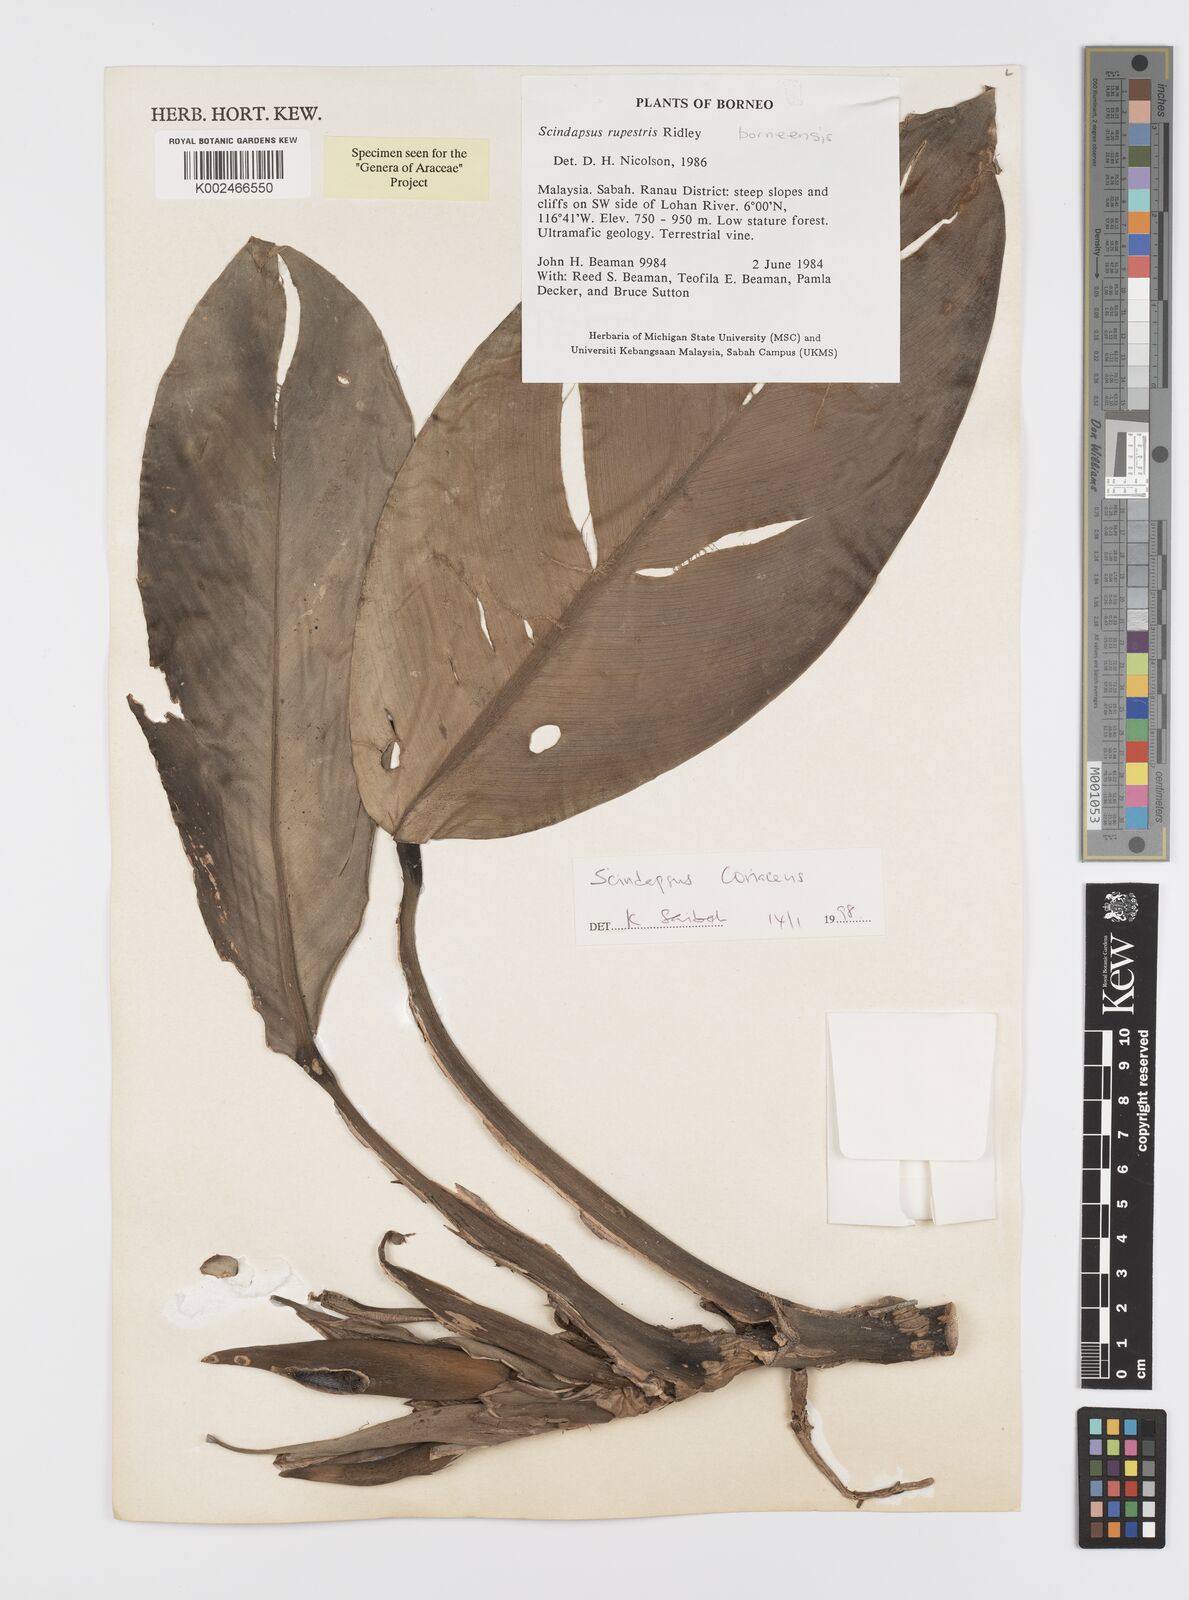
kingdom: Plantae
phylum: Tracheophyta
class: Liliopsida
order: Alismatales
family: Araceae
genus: Scindapsus
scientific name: Scindapsus coriaceus
